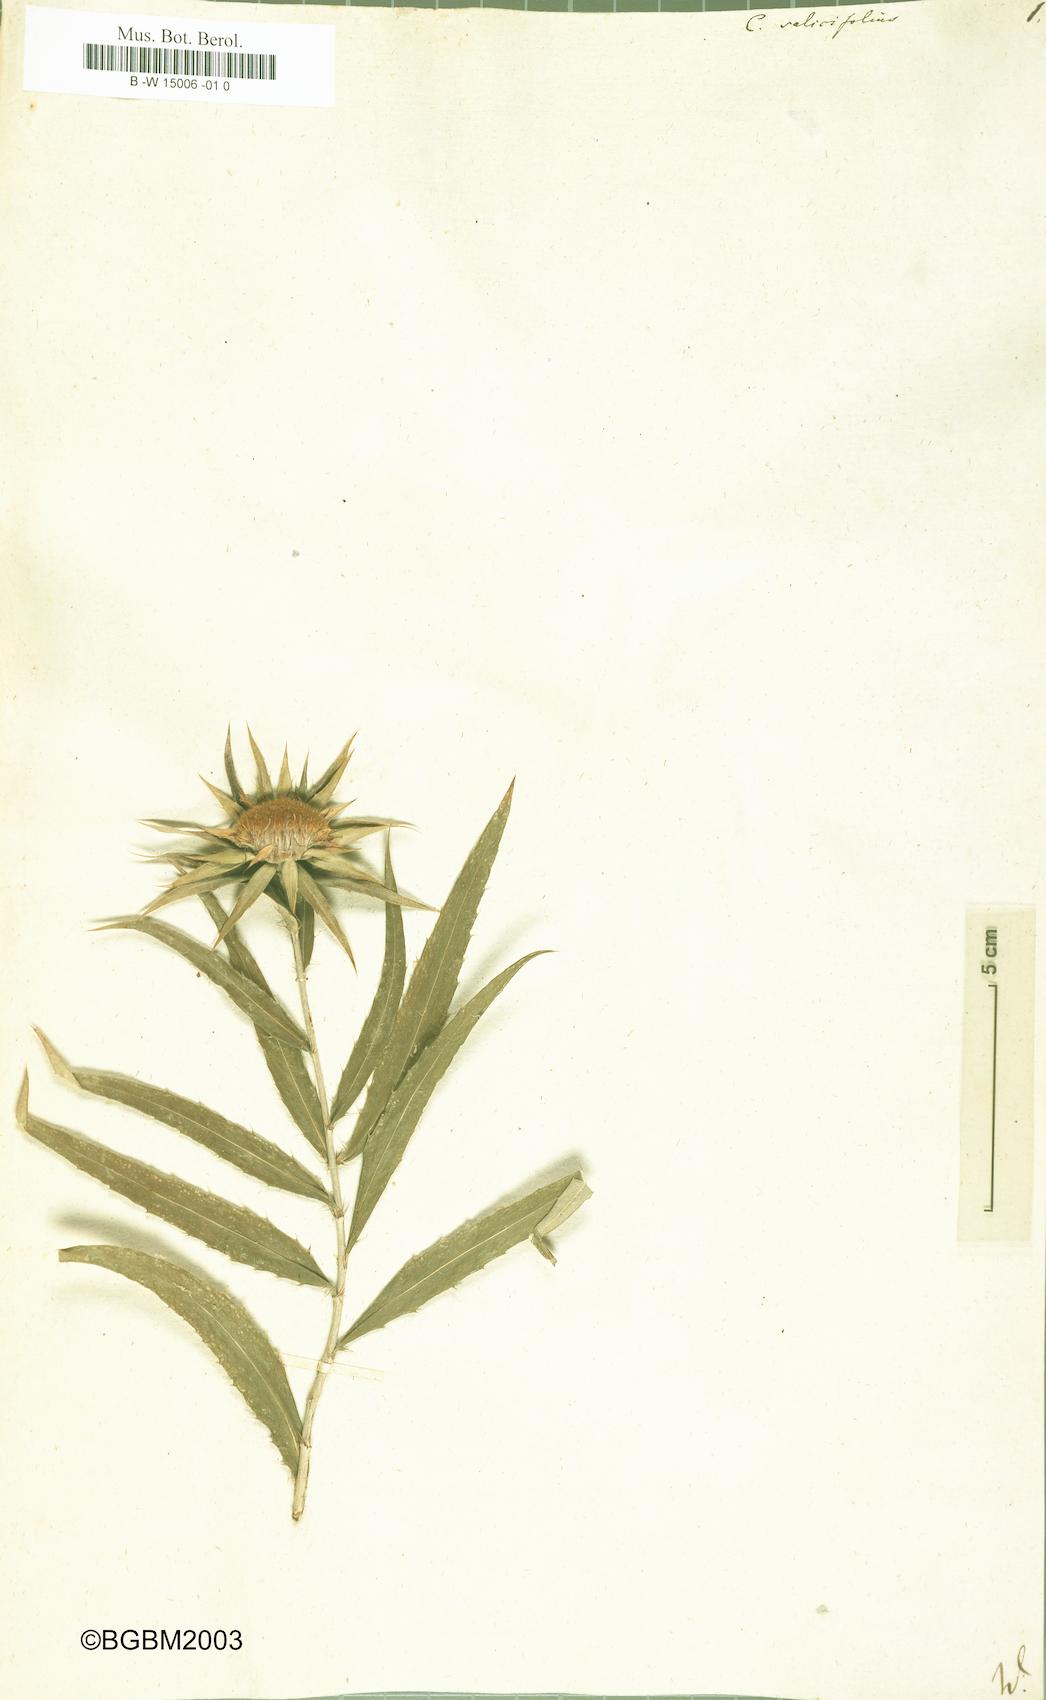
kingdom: Plantae
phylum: Tracheophyta
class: Magnoliopsida
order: Asterales
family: Asteraceae
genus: Carlina
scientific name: Carlina salicifolia
